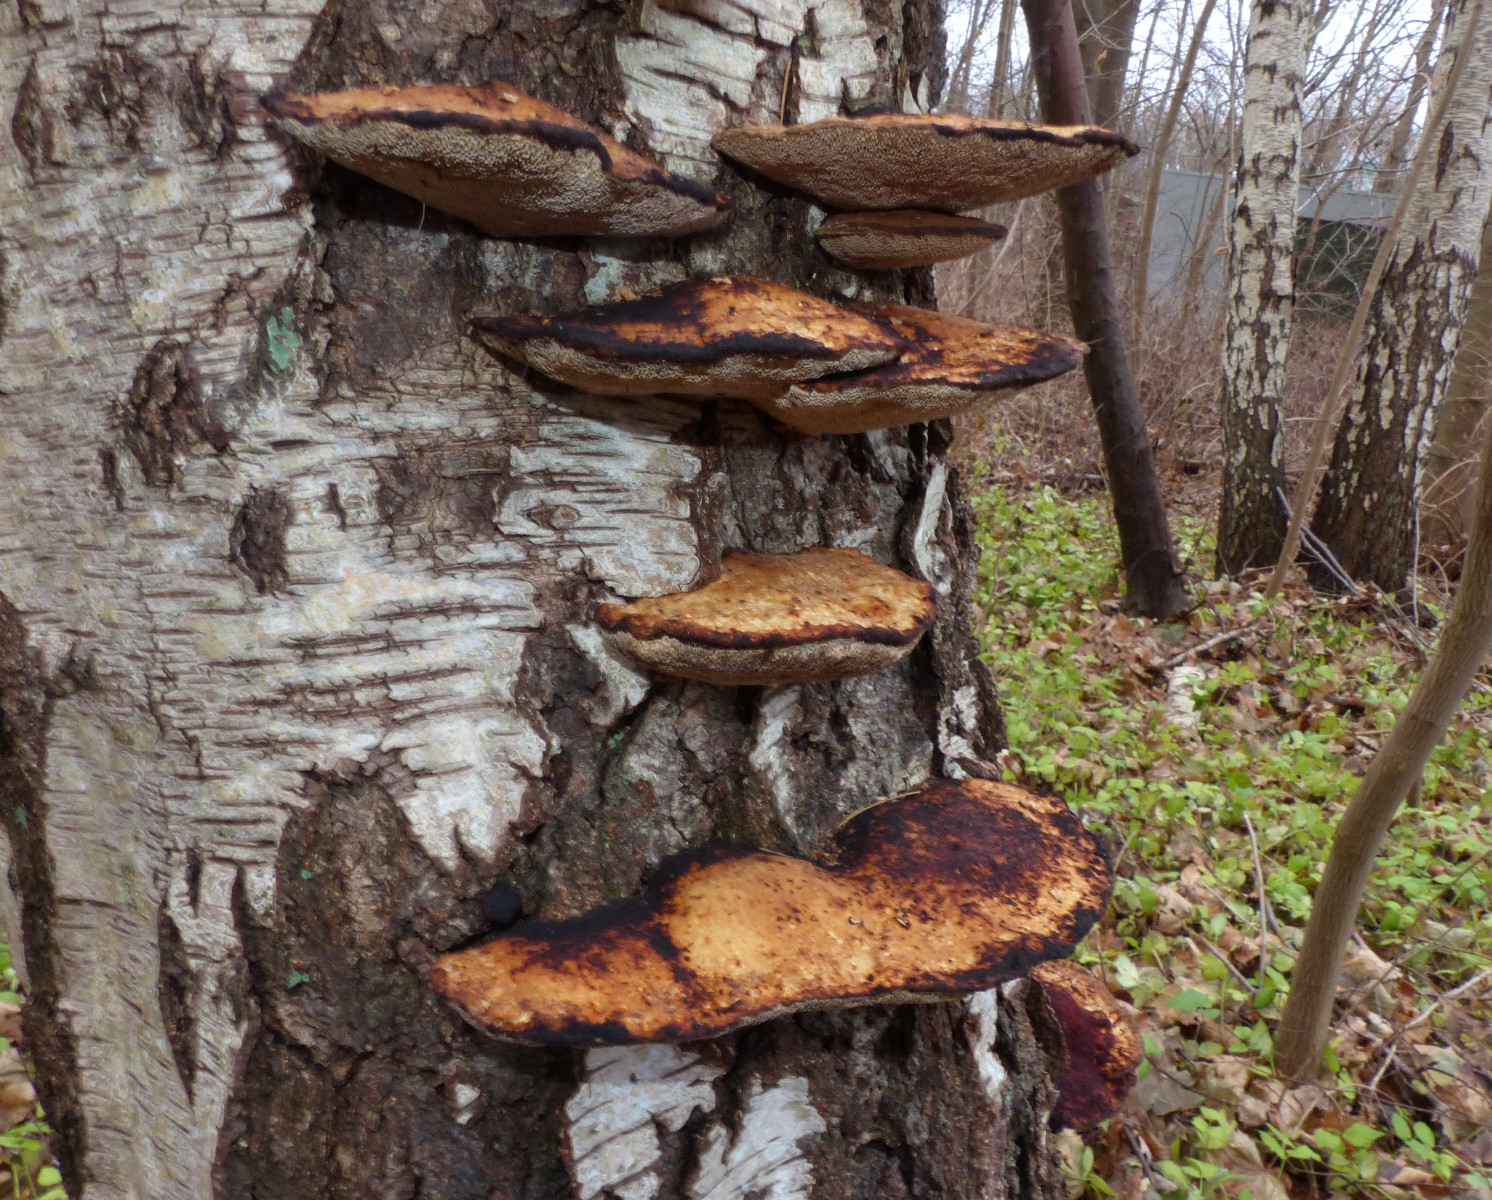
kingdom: Fungi
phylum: Basidiomycota
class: Agaricomycetes
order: Polyporales
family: Polyporaceae
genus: Daedaleopsis
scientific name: Daedaleopsis confragosa
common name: rødmende læderporesvamp
